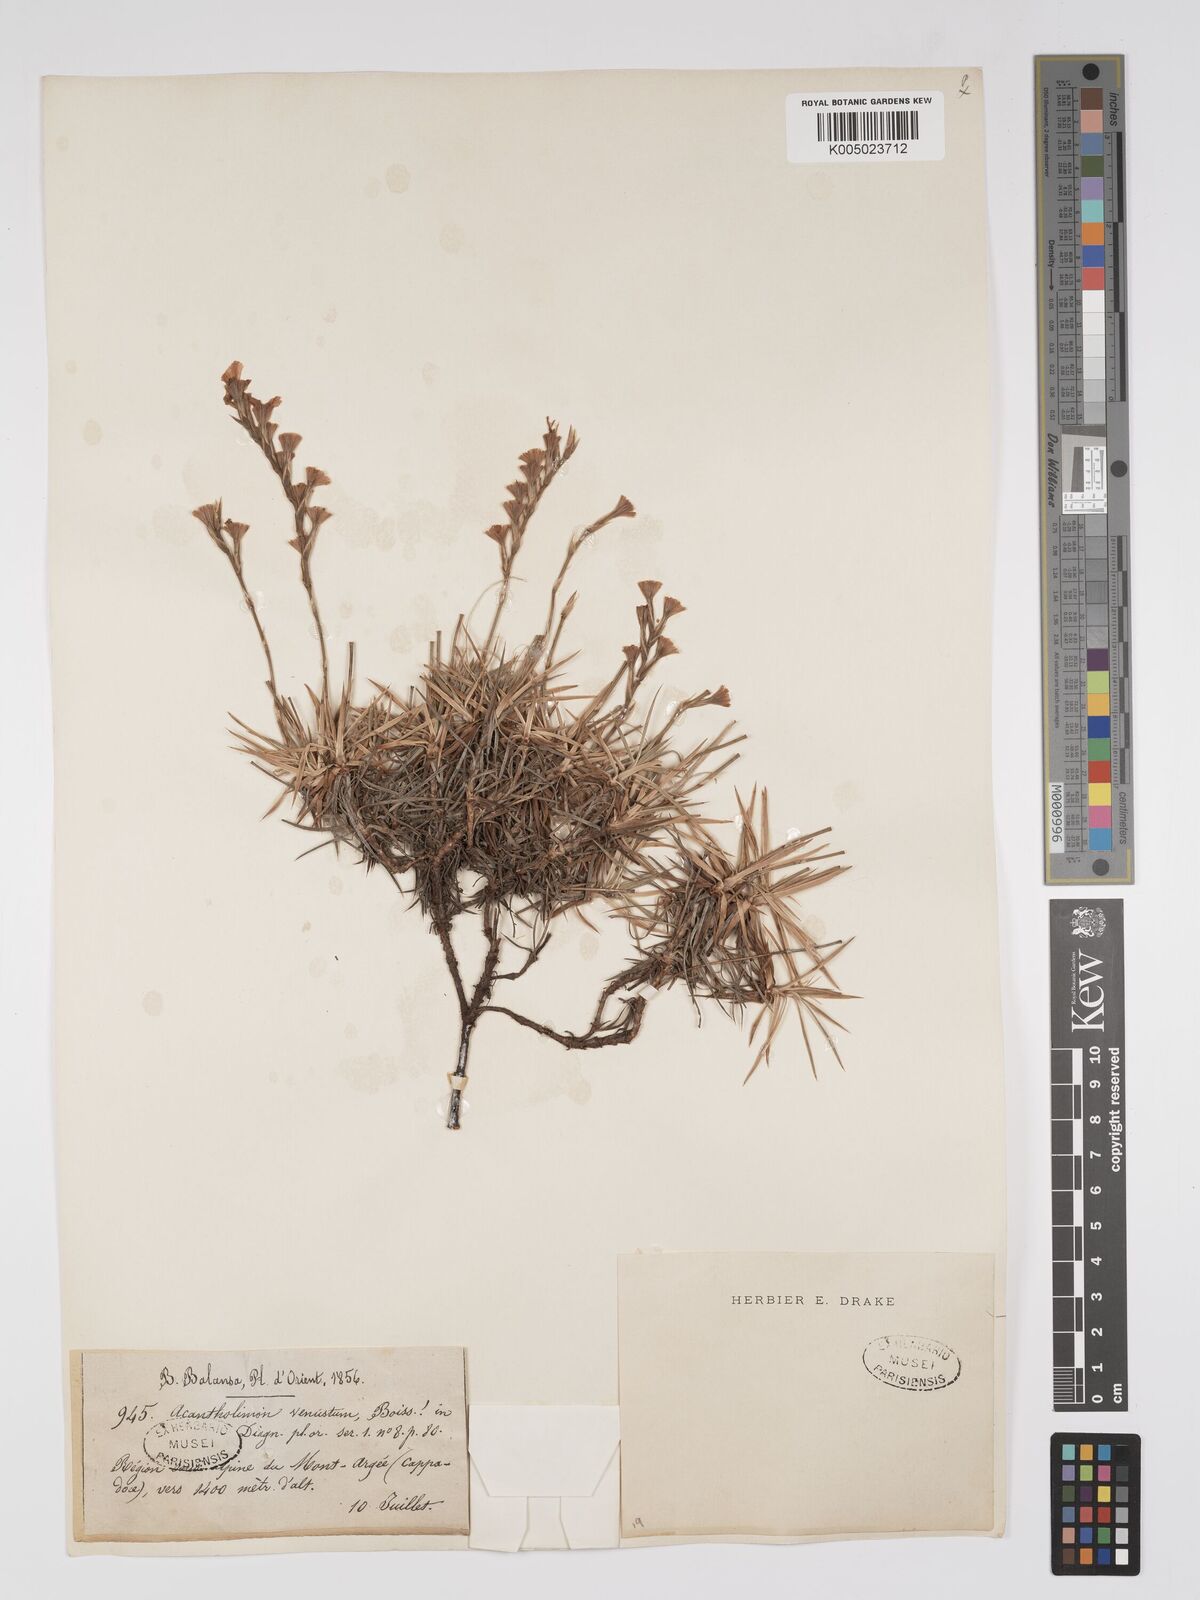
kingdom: Plantae
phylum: Tracheophyta
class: Magnoliopsida
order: Caryophyllales
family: Plumbaginaceae
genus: Acantholimon
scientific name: Acantholimon venustum
